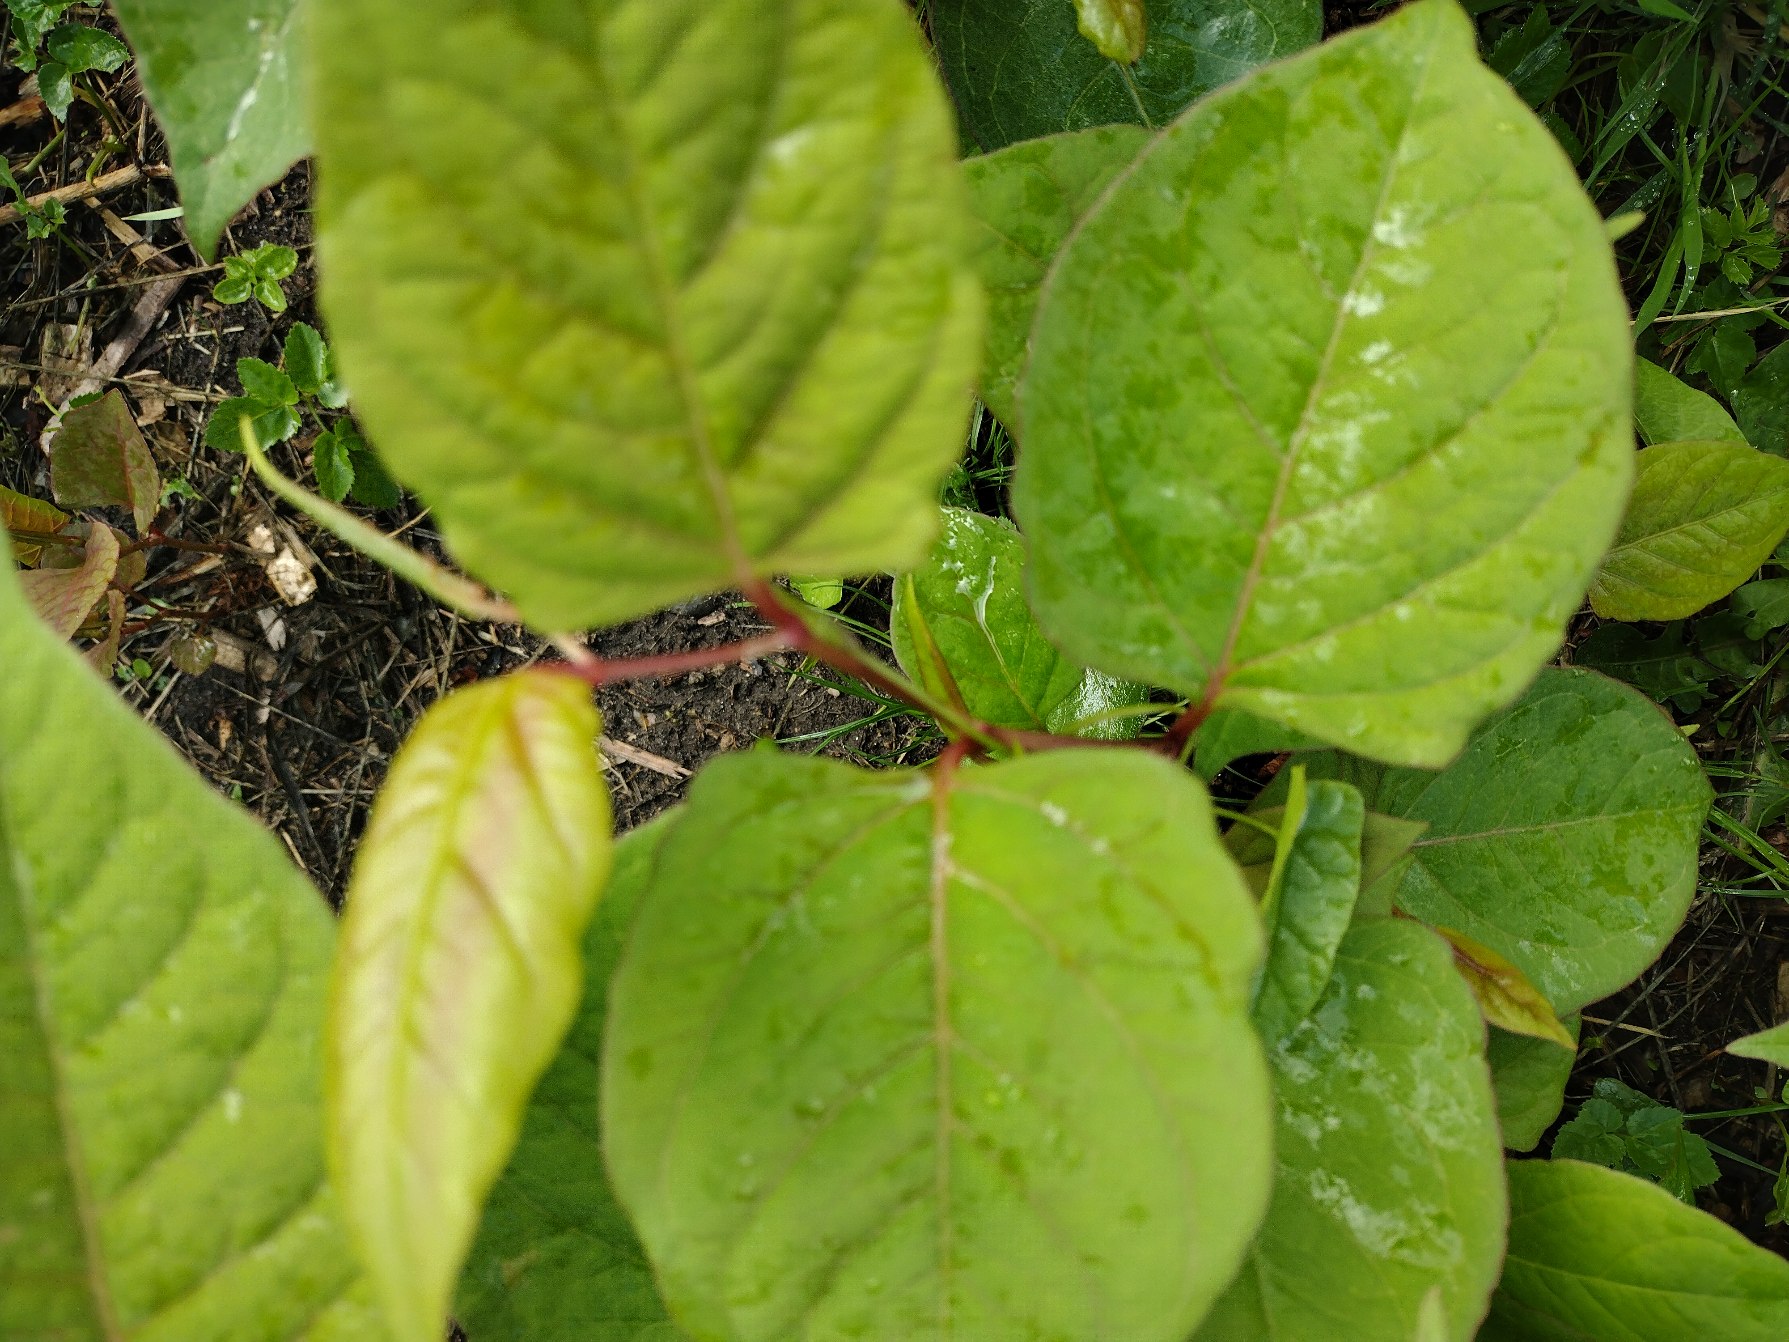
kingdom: Plantae
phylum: Tracheophyta
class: Magnoliopsida
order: Caryophyllales
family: Polygonaceae
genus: Reynoutria
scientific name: Reynoutria japonica
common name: Japan-pileurt
